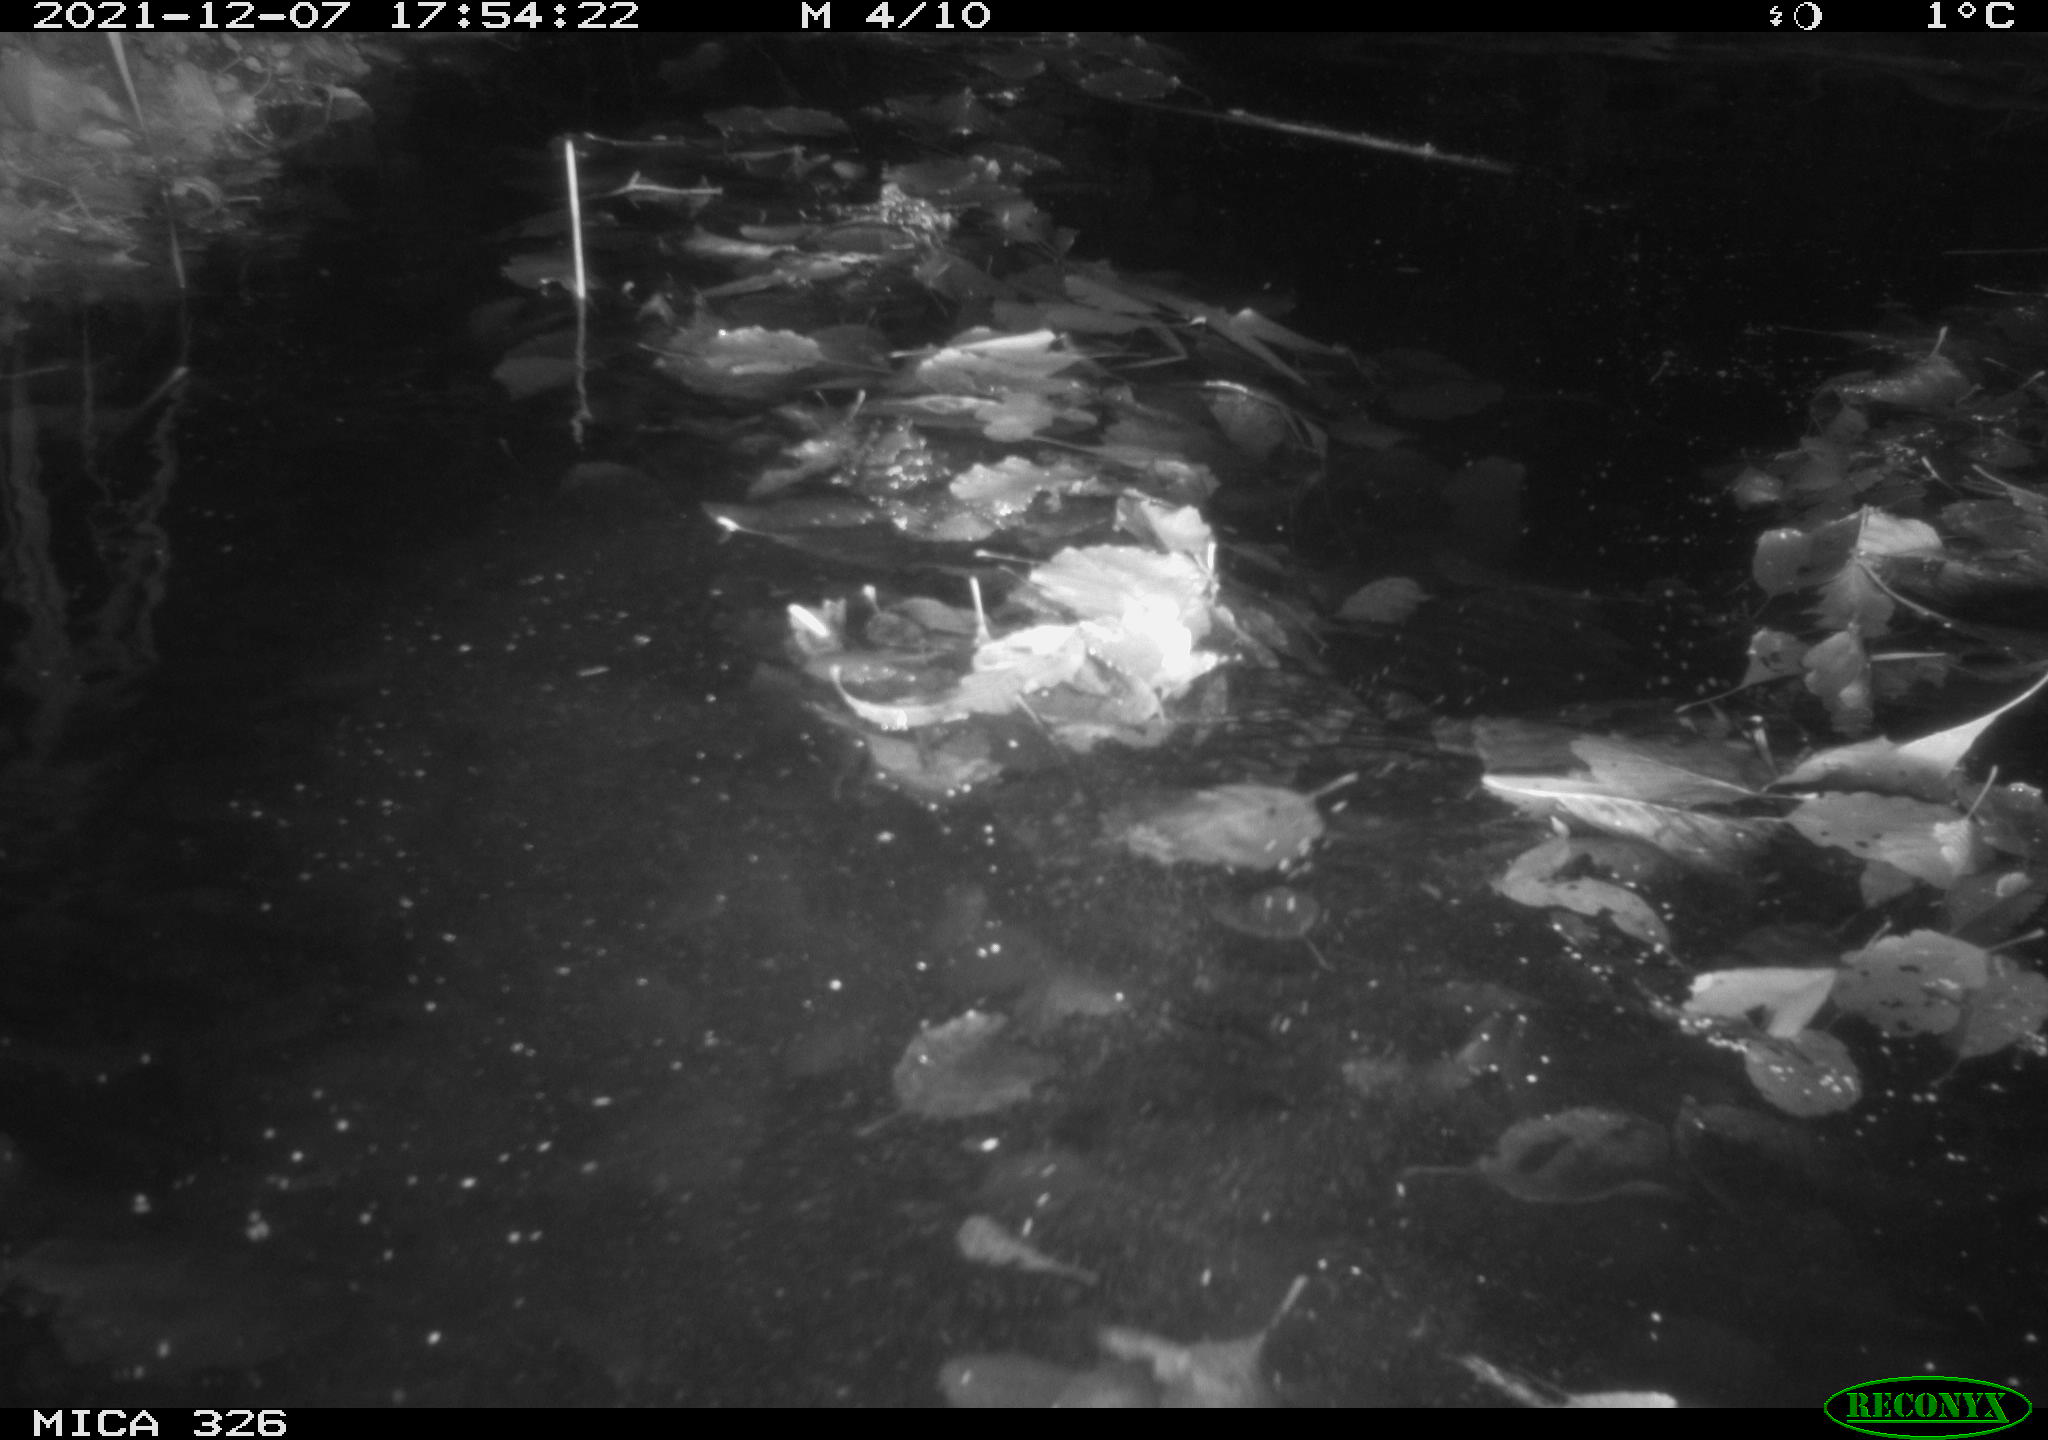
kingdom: Animalia
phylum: Chordata
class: Aves
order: Anseriformes
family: Anatidae
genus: Anas
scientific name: Anas platyrhynchos
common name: Mallard
